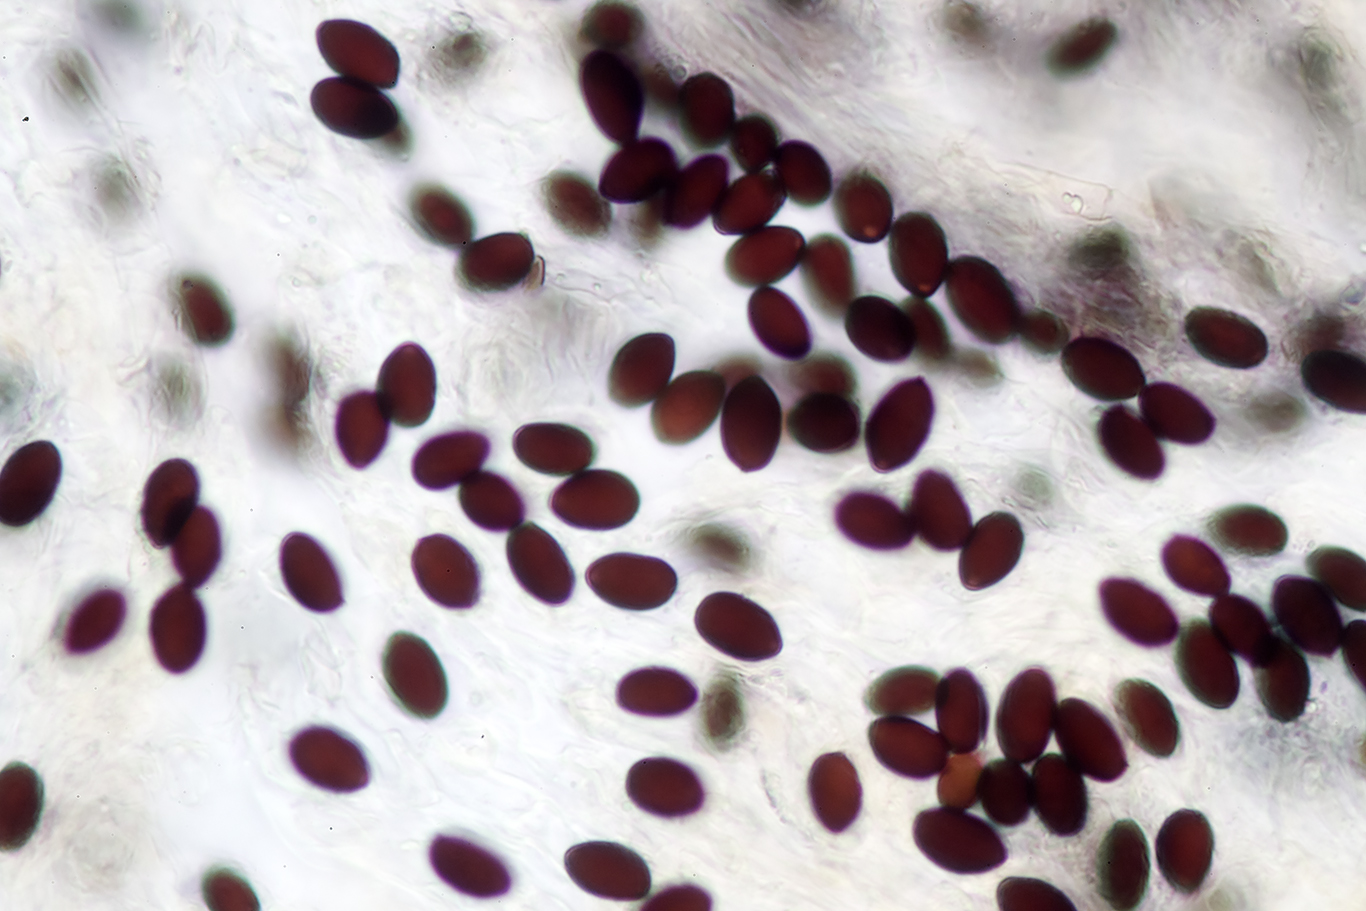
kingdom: Fungi
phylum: Basidiomycota
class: Agaricomycetes
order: Agaricales
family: Psathyrellaceae
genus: Parasola
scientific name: Parasola plicatilis
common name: plæne-hjulhat
